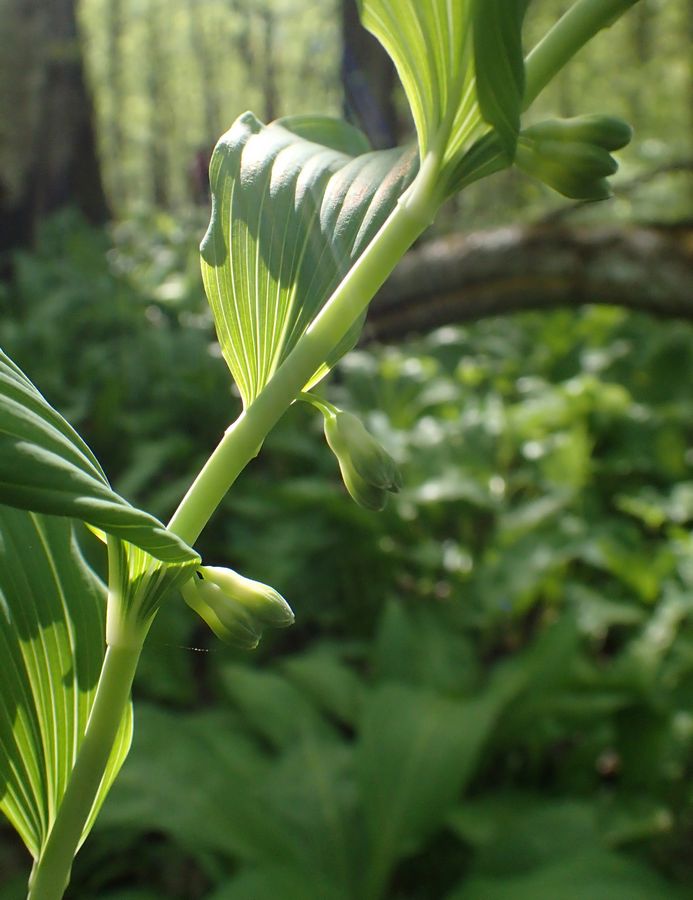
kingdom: Plantae
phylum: Tracheophyta
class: Liliopsida
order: Asparagales
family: Asparagaceae
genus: Polygonatum
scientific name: Polygonatum
